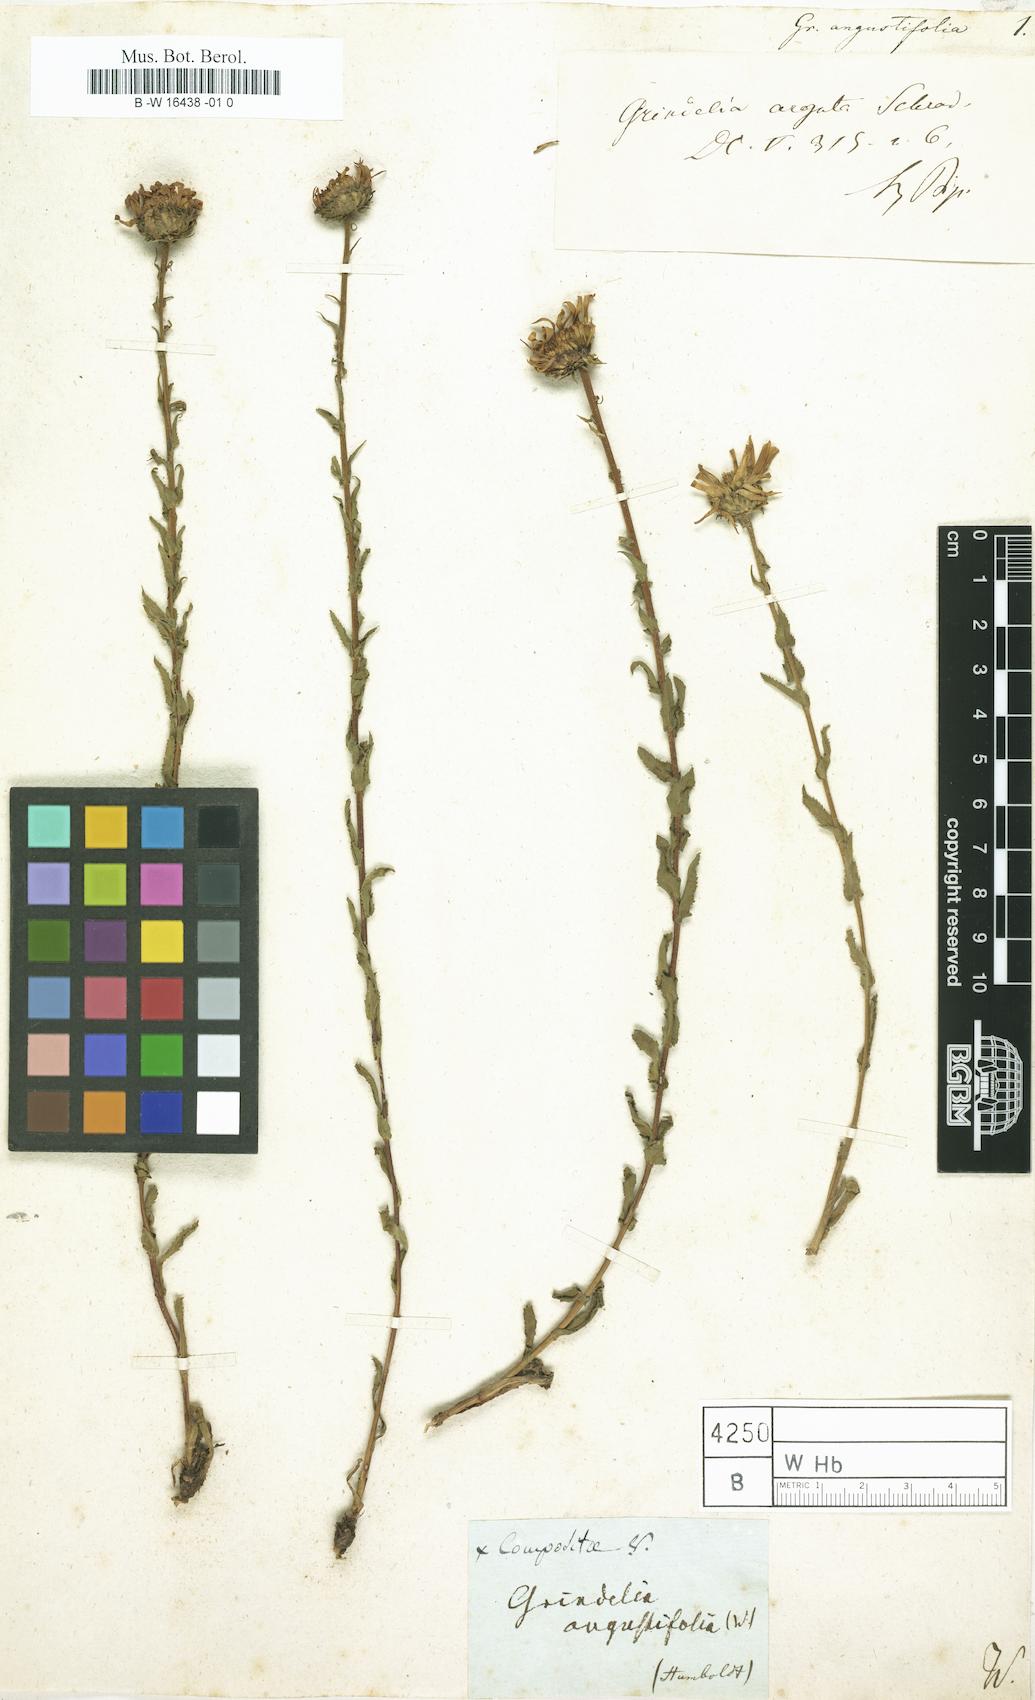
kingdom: Plantae
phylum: Tracheophyta
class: Magnoliopsida
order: Asterales
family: Asteraceae
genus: Grindelia
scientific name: Grindelia squarrosa
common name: Curly-cup gumweed
